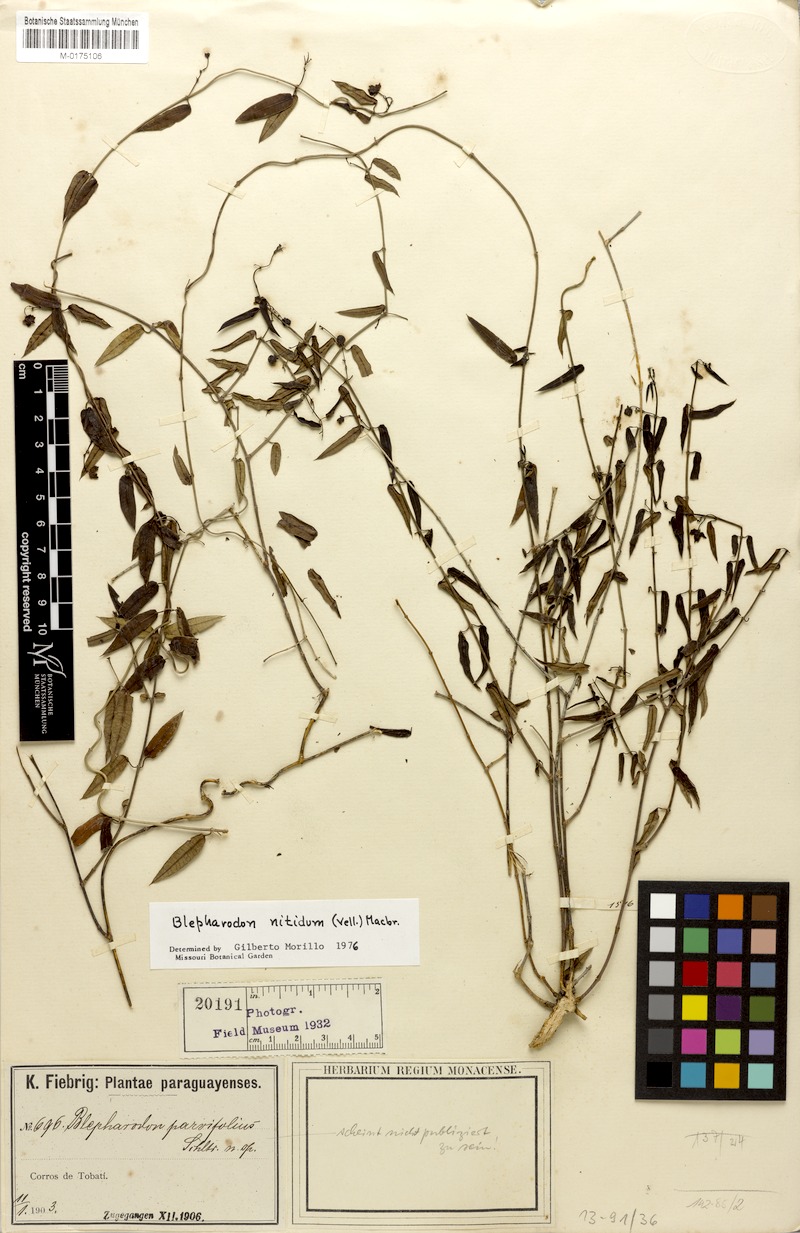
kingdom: Plantae
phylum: Tracheophyta
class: Magnoliopsida
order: Gentianales
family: Apocynaceae
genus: Blepharodon
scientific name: Blepharodon pictum
